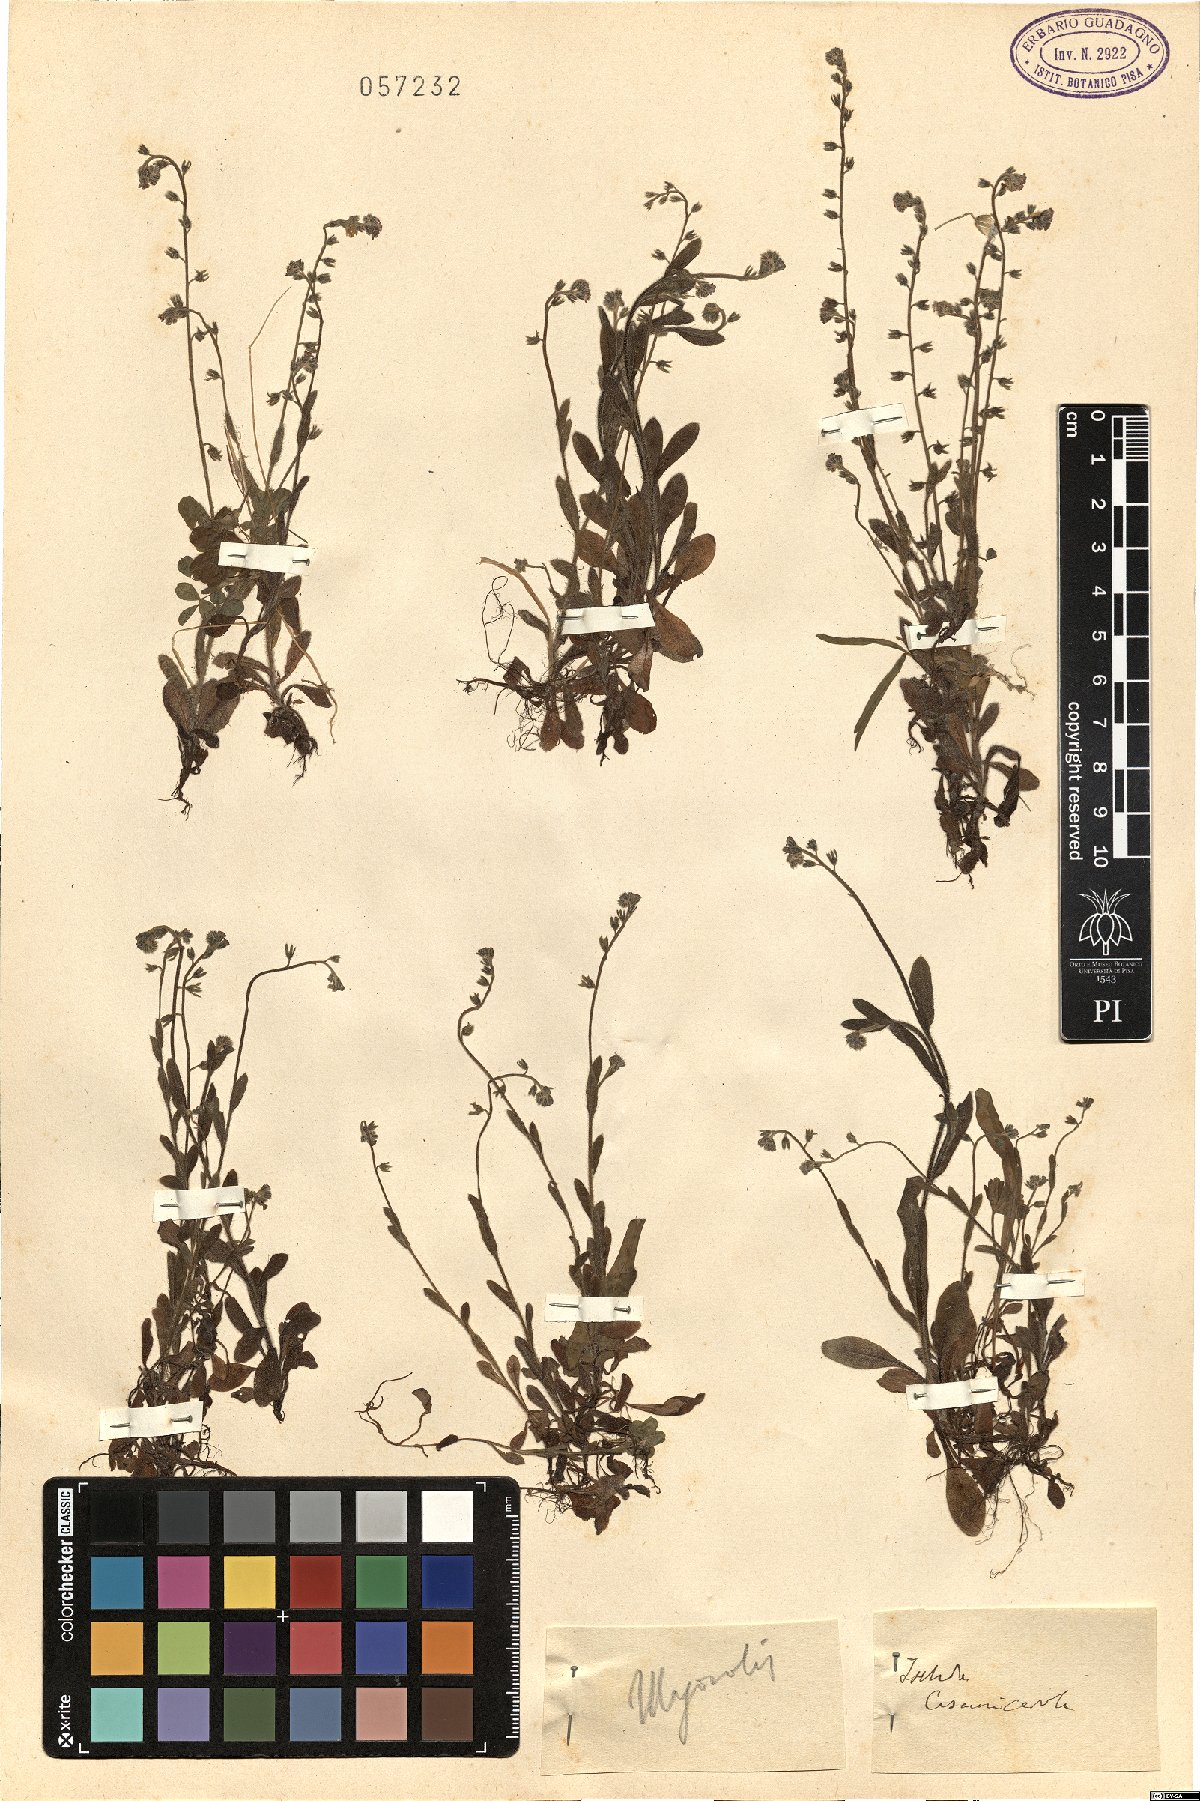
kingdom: Plantae
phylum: Tracheophyta
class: Magnoliopsida
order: Boraginales
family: Boraginaceae
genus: Myosotis
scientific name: Myosotis
